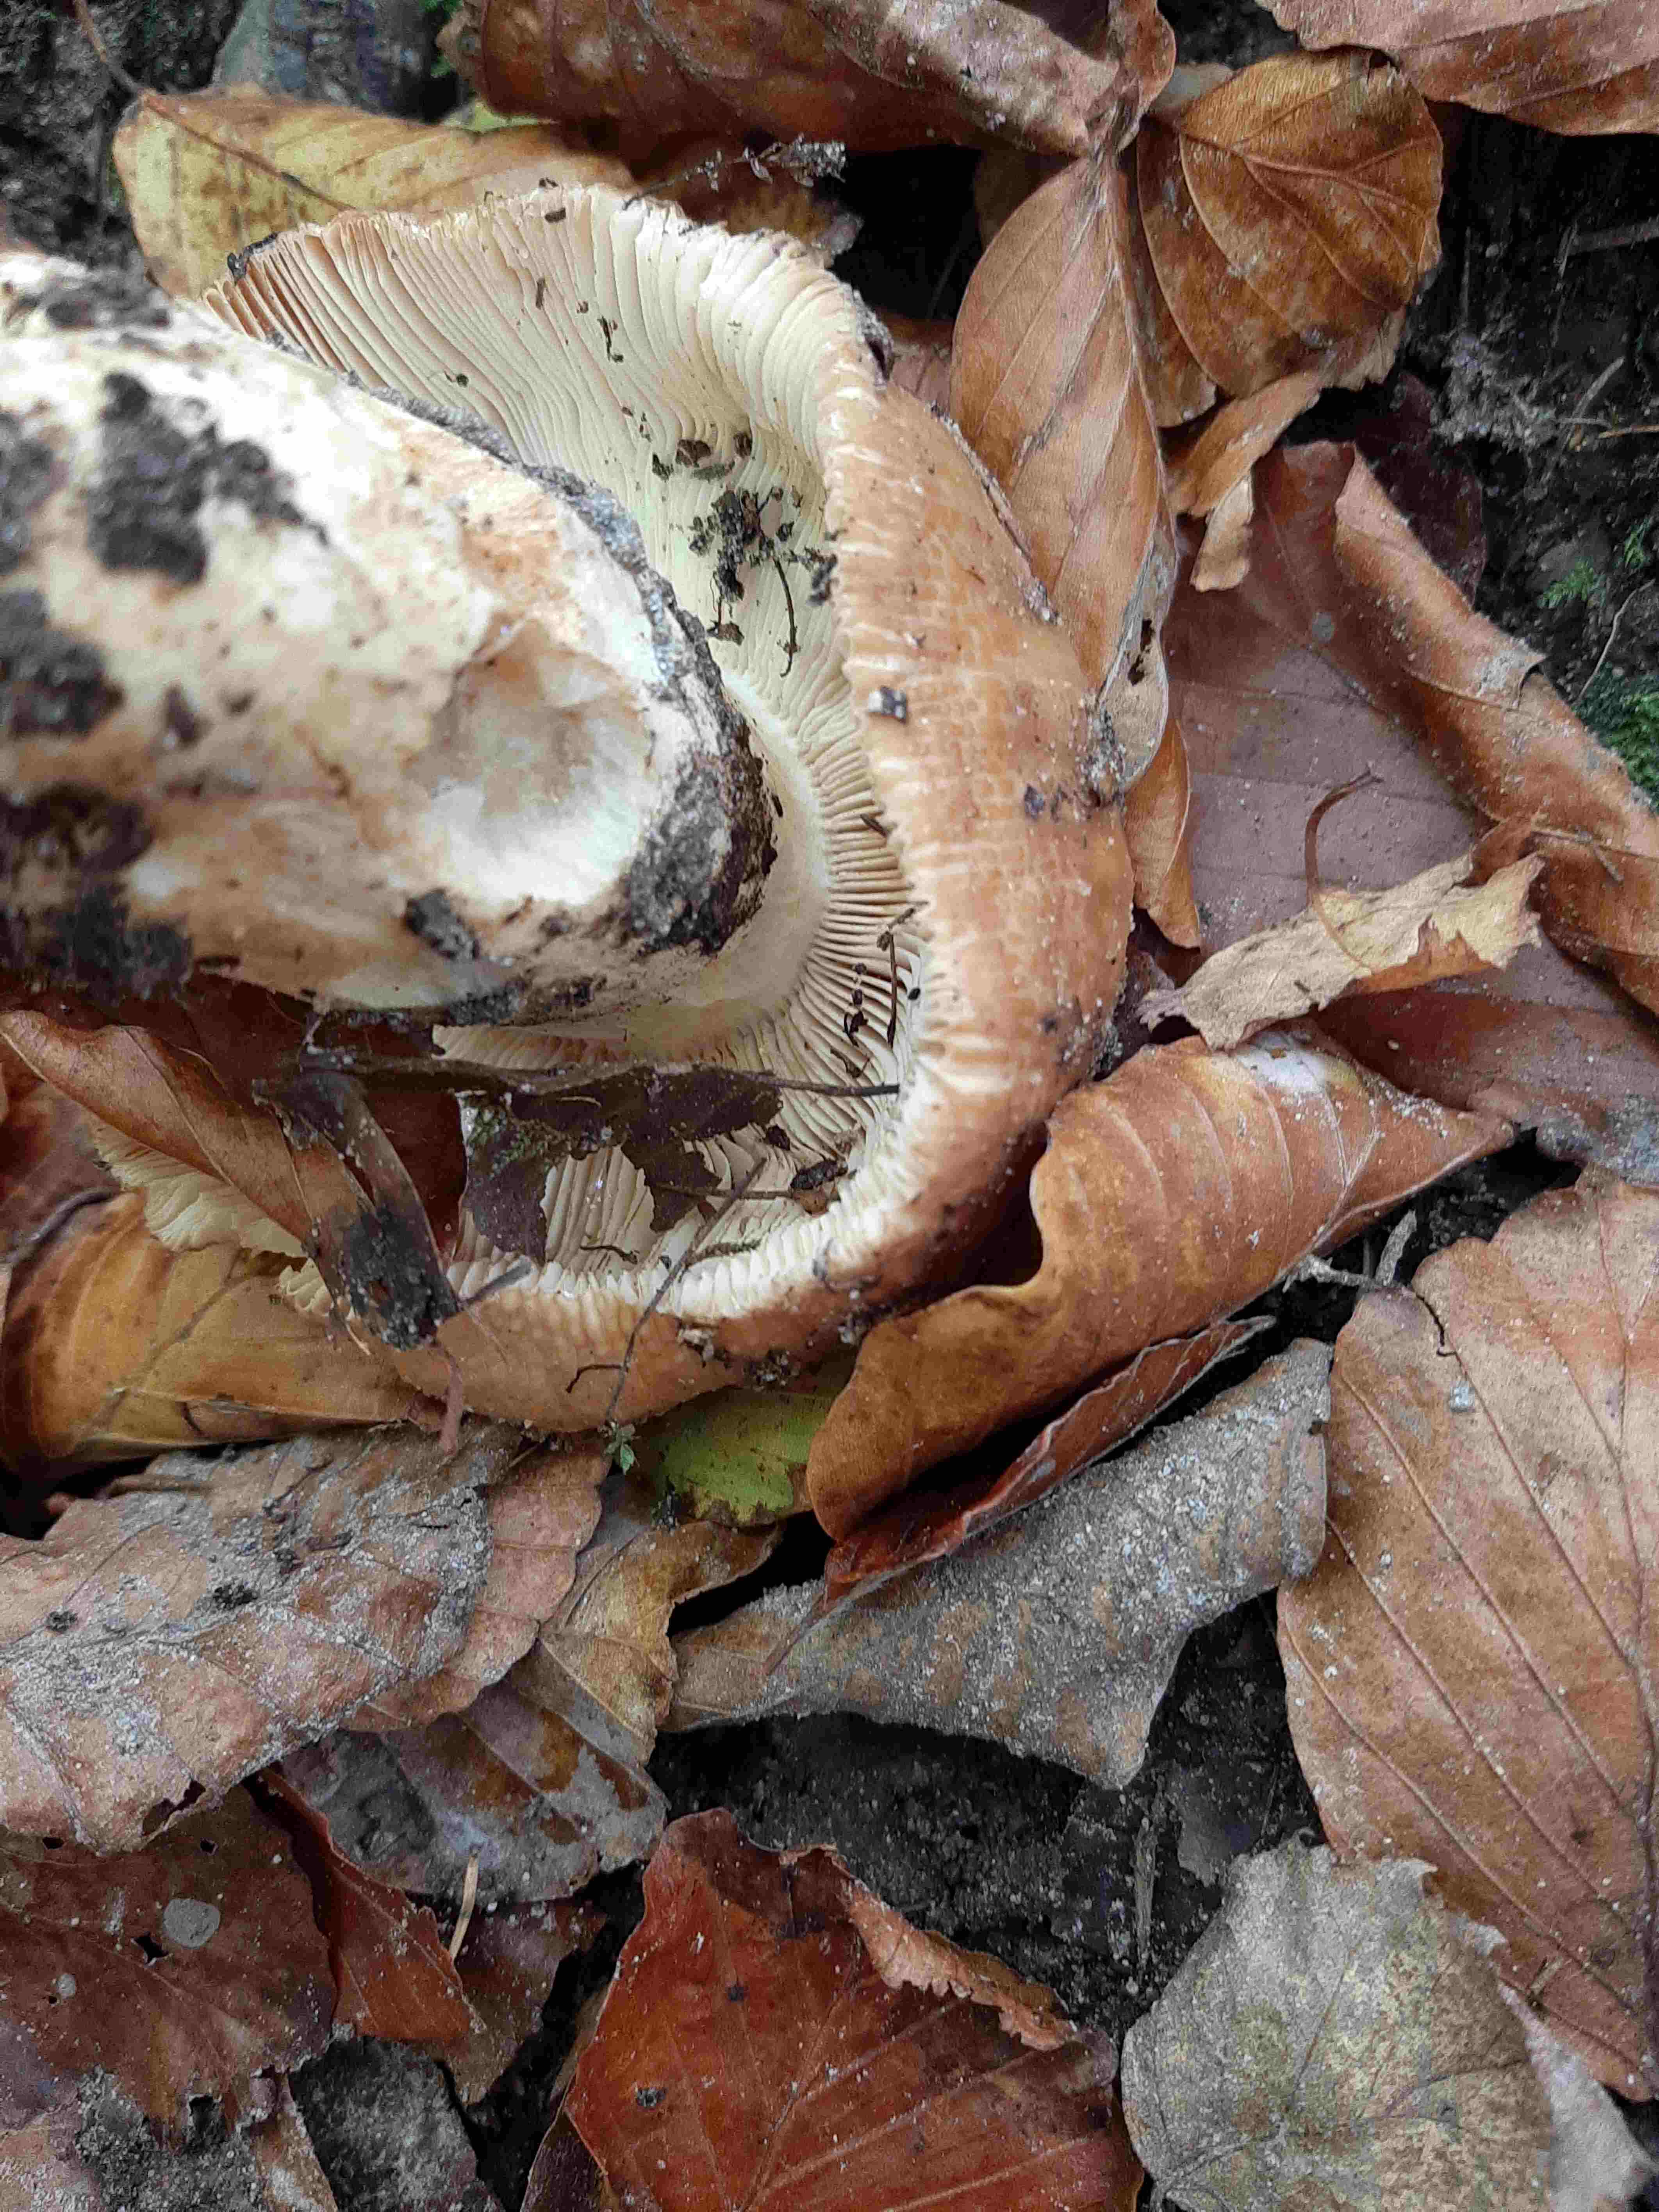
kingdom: Fungi
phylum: Basidiomycota
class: Agaricomycetes
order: Russulales
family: Russulaceae
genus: Russula
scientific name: Russula
